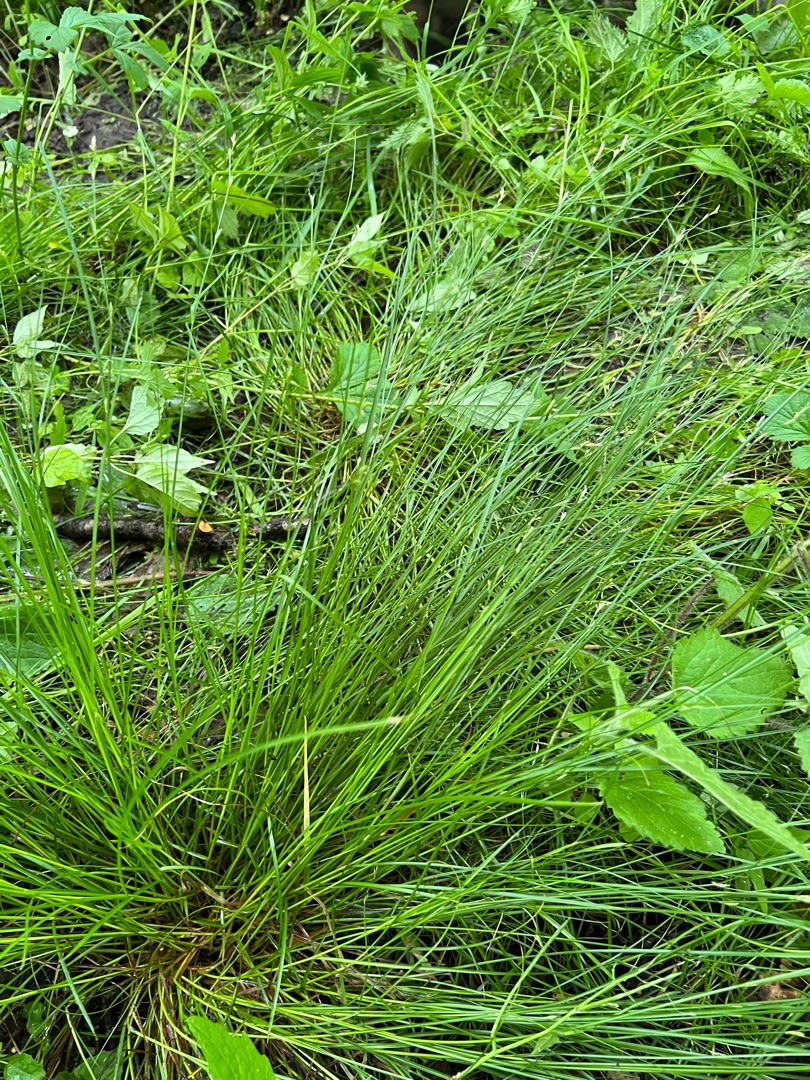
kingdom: Plantae
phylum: Tracheophyta
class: Liliopsida
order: Poales
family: Cyperaceae
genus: Carex
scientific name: Carex remota
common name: Akselblomstret star
